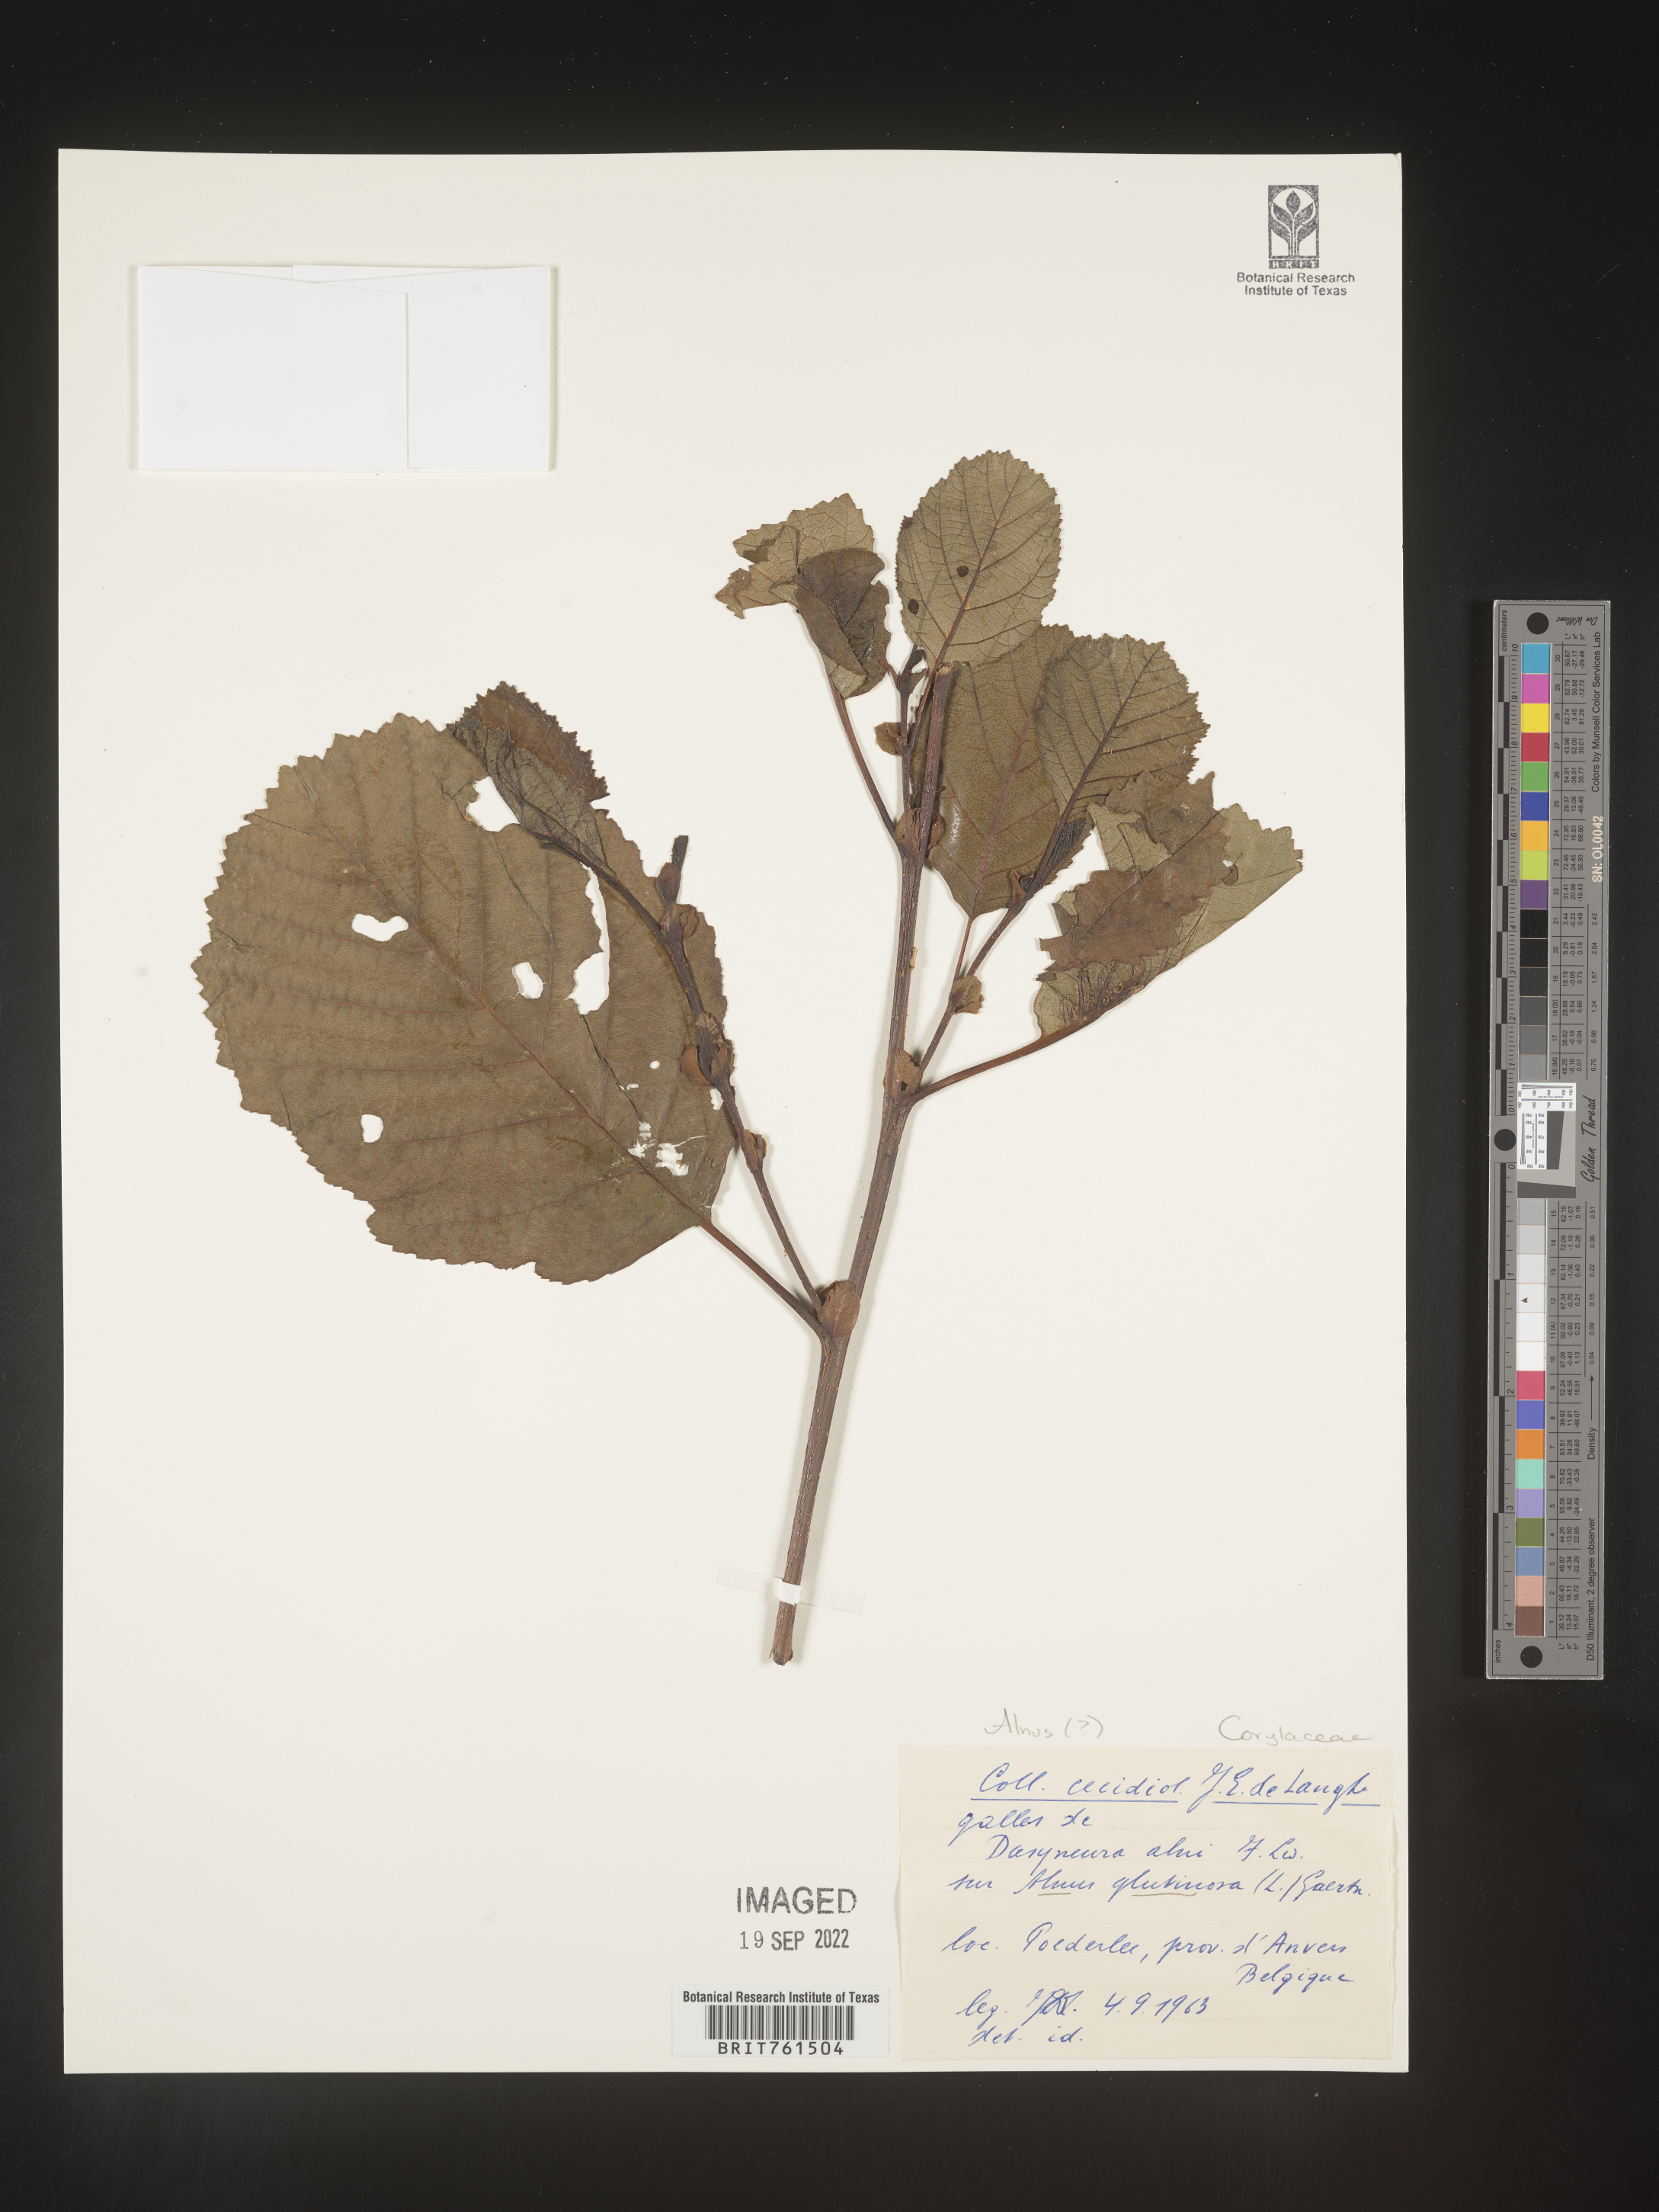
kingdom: Plantae
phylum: Tracheophyta
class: Magnoliopsida
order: Fagales
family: Betulaceae
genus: Alnus
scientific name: Alnus
